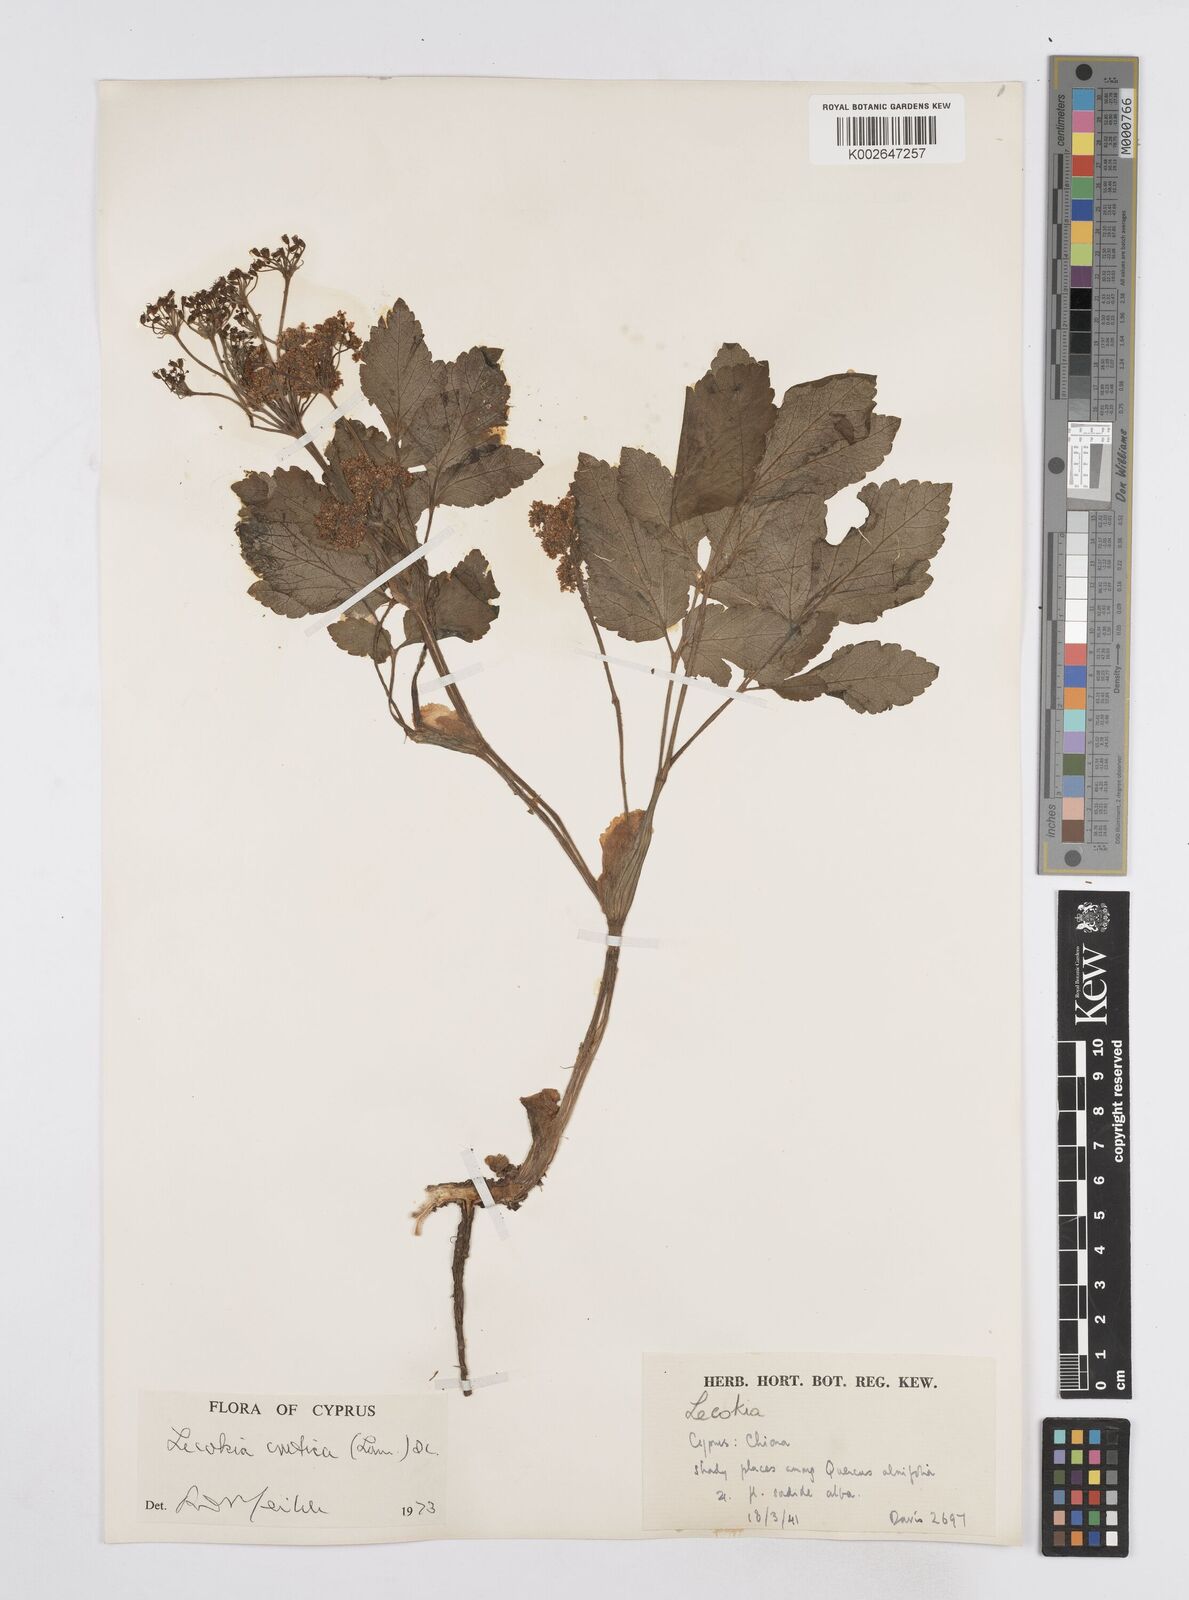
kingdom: Plantae
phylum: Tracheophyta
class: Magnoliopsida
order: Apiales
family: Apiaceae
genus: Lecokia
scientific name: Lecokia cretica
